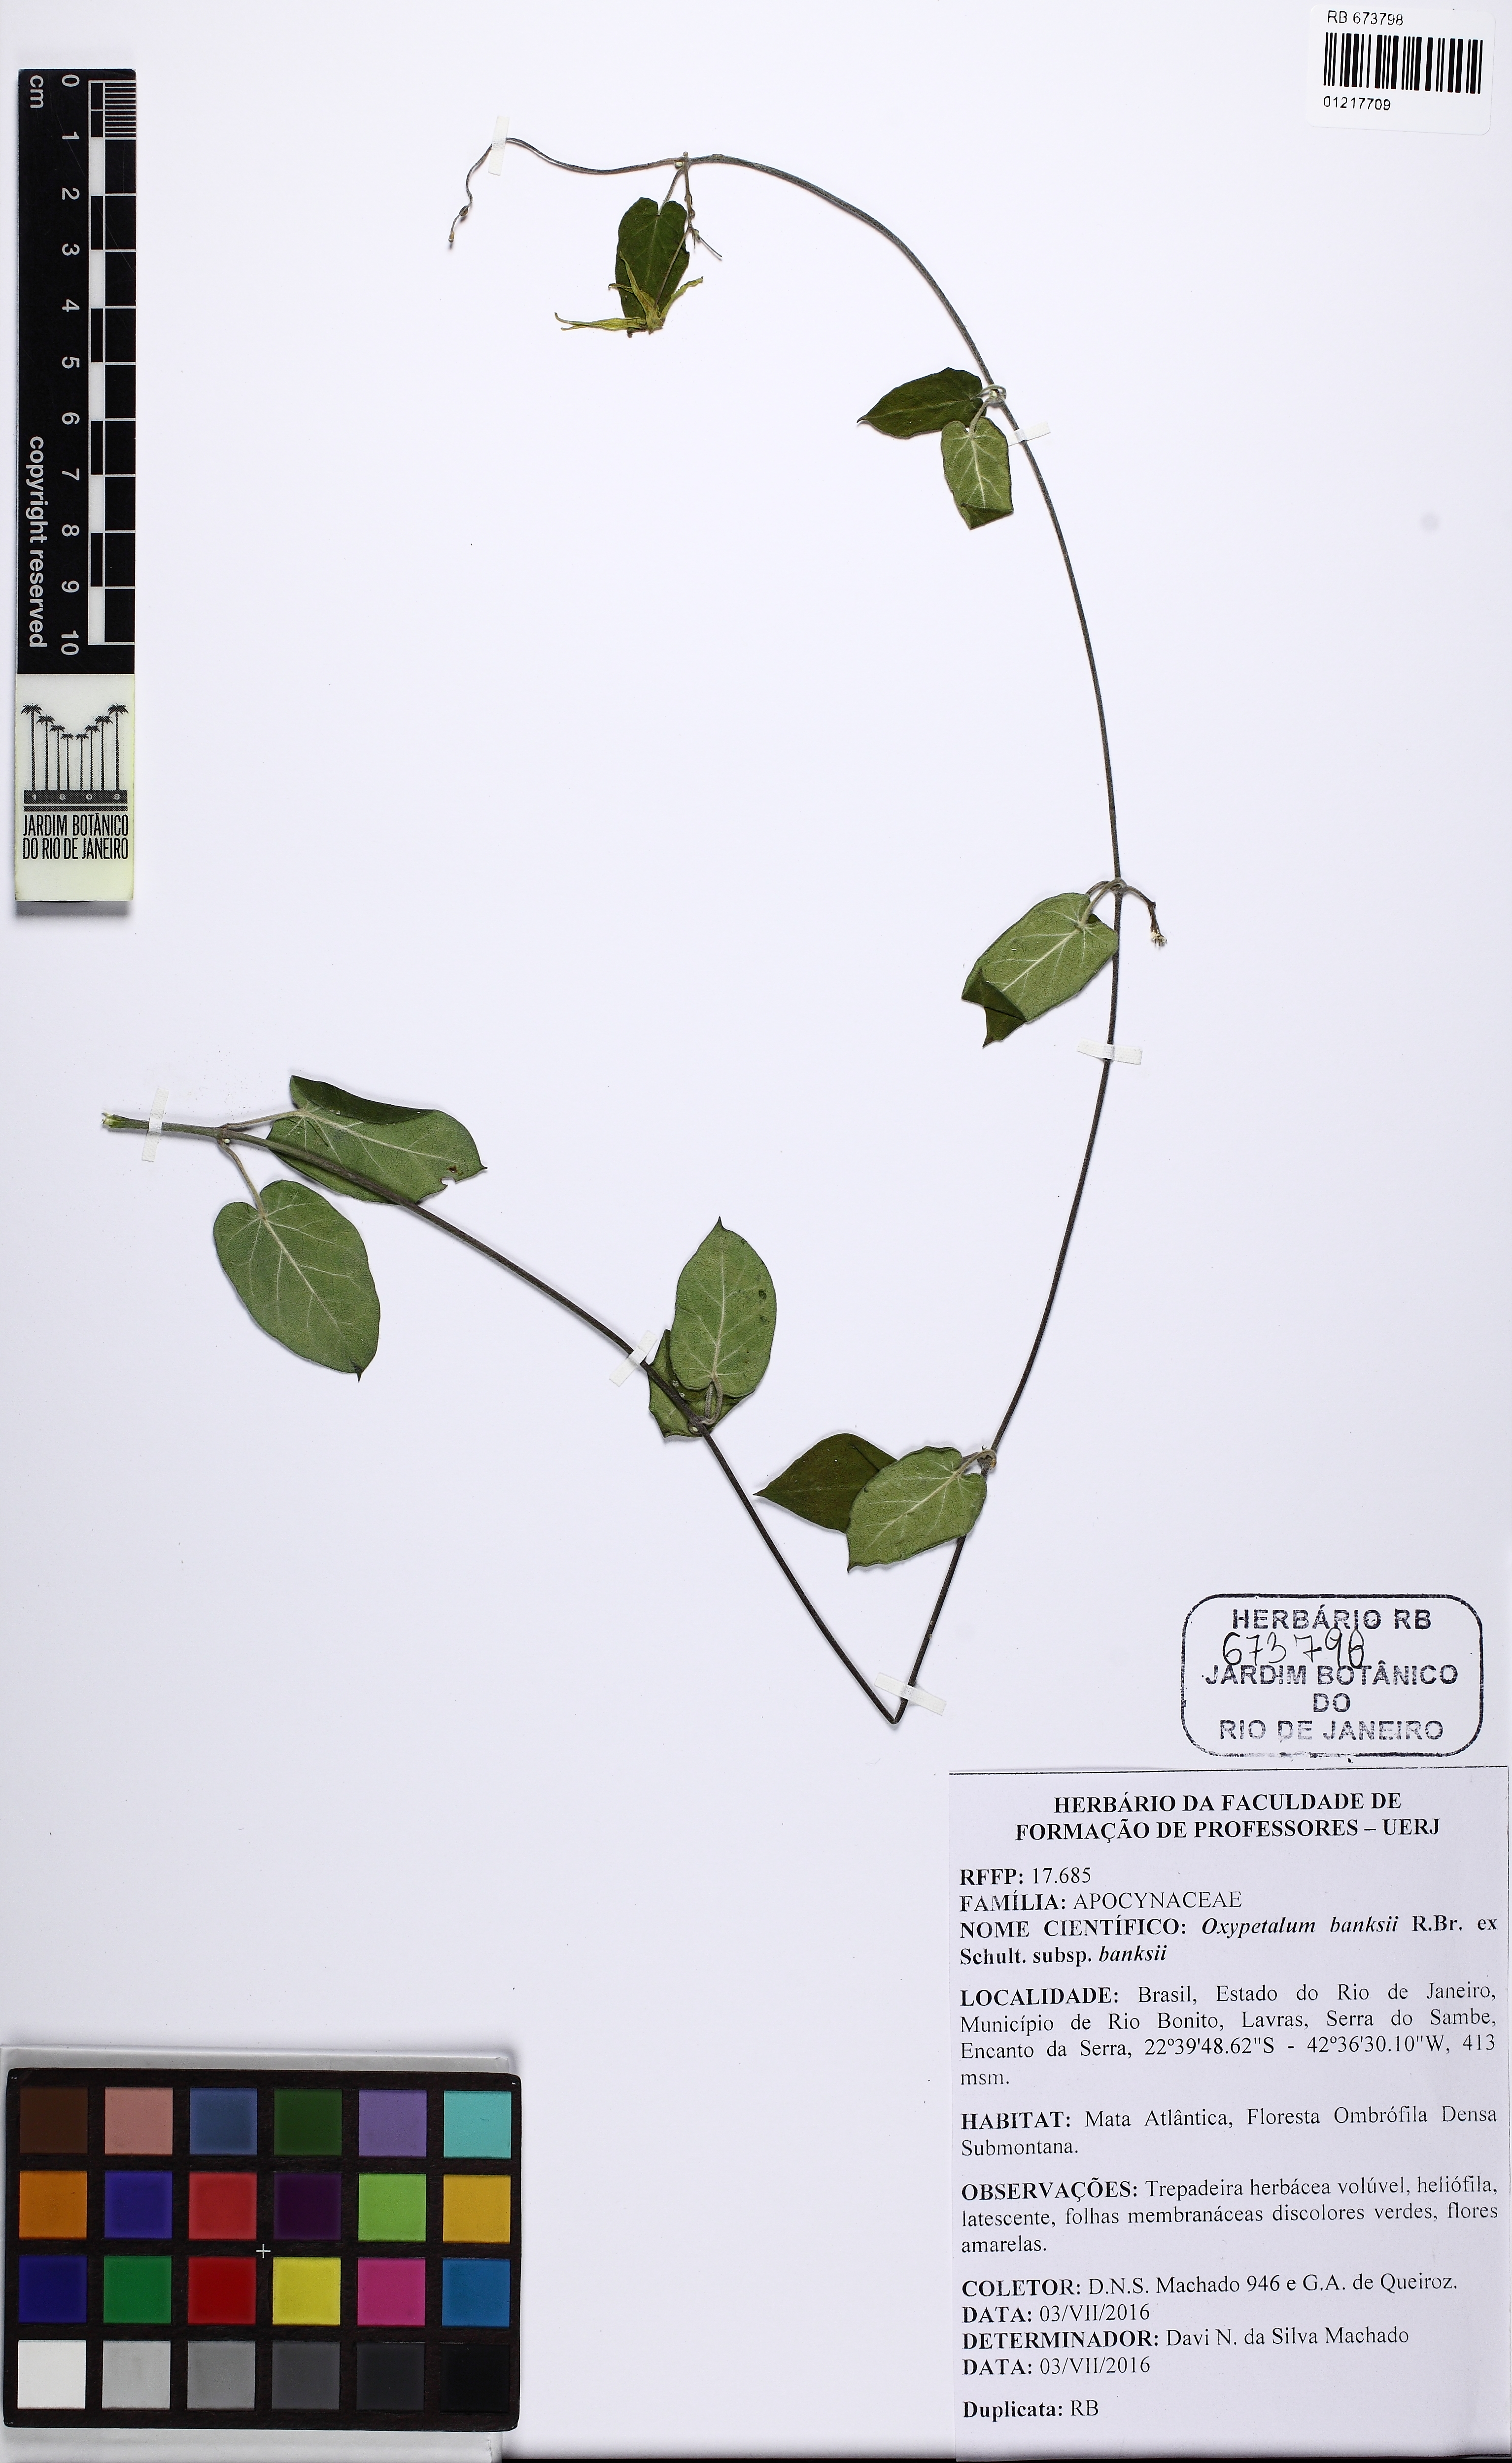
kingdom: Plantae
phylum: Tracheophyta
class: Magnoliopsida
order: Gentianales
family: Apocynaceae
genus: Oxypetalum
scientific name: Oxypetalum banksii
